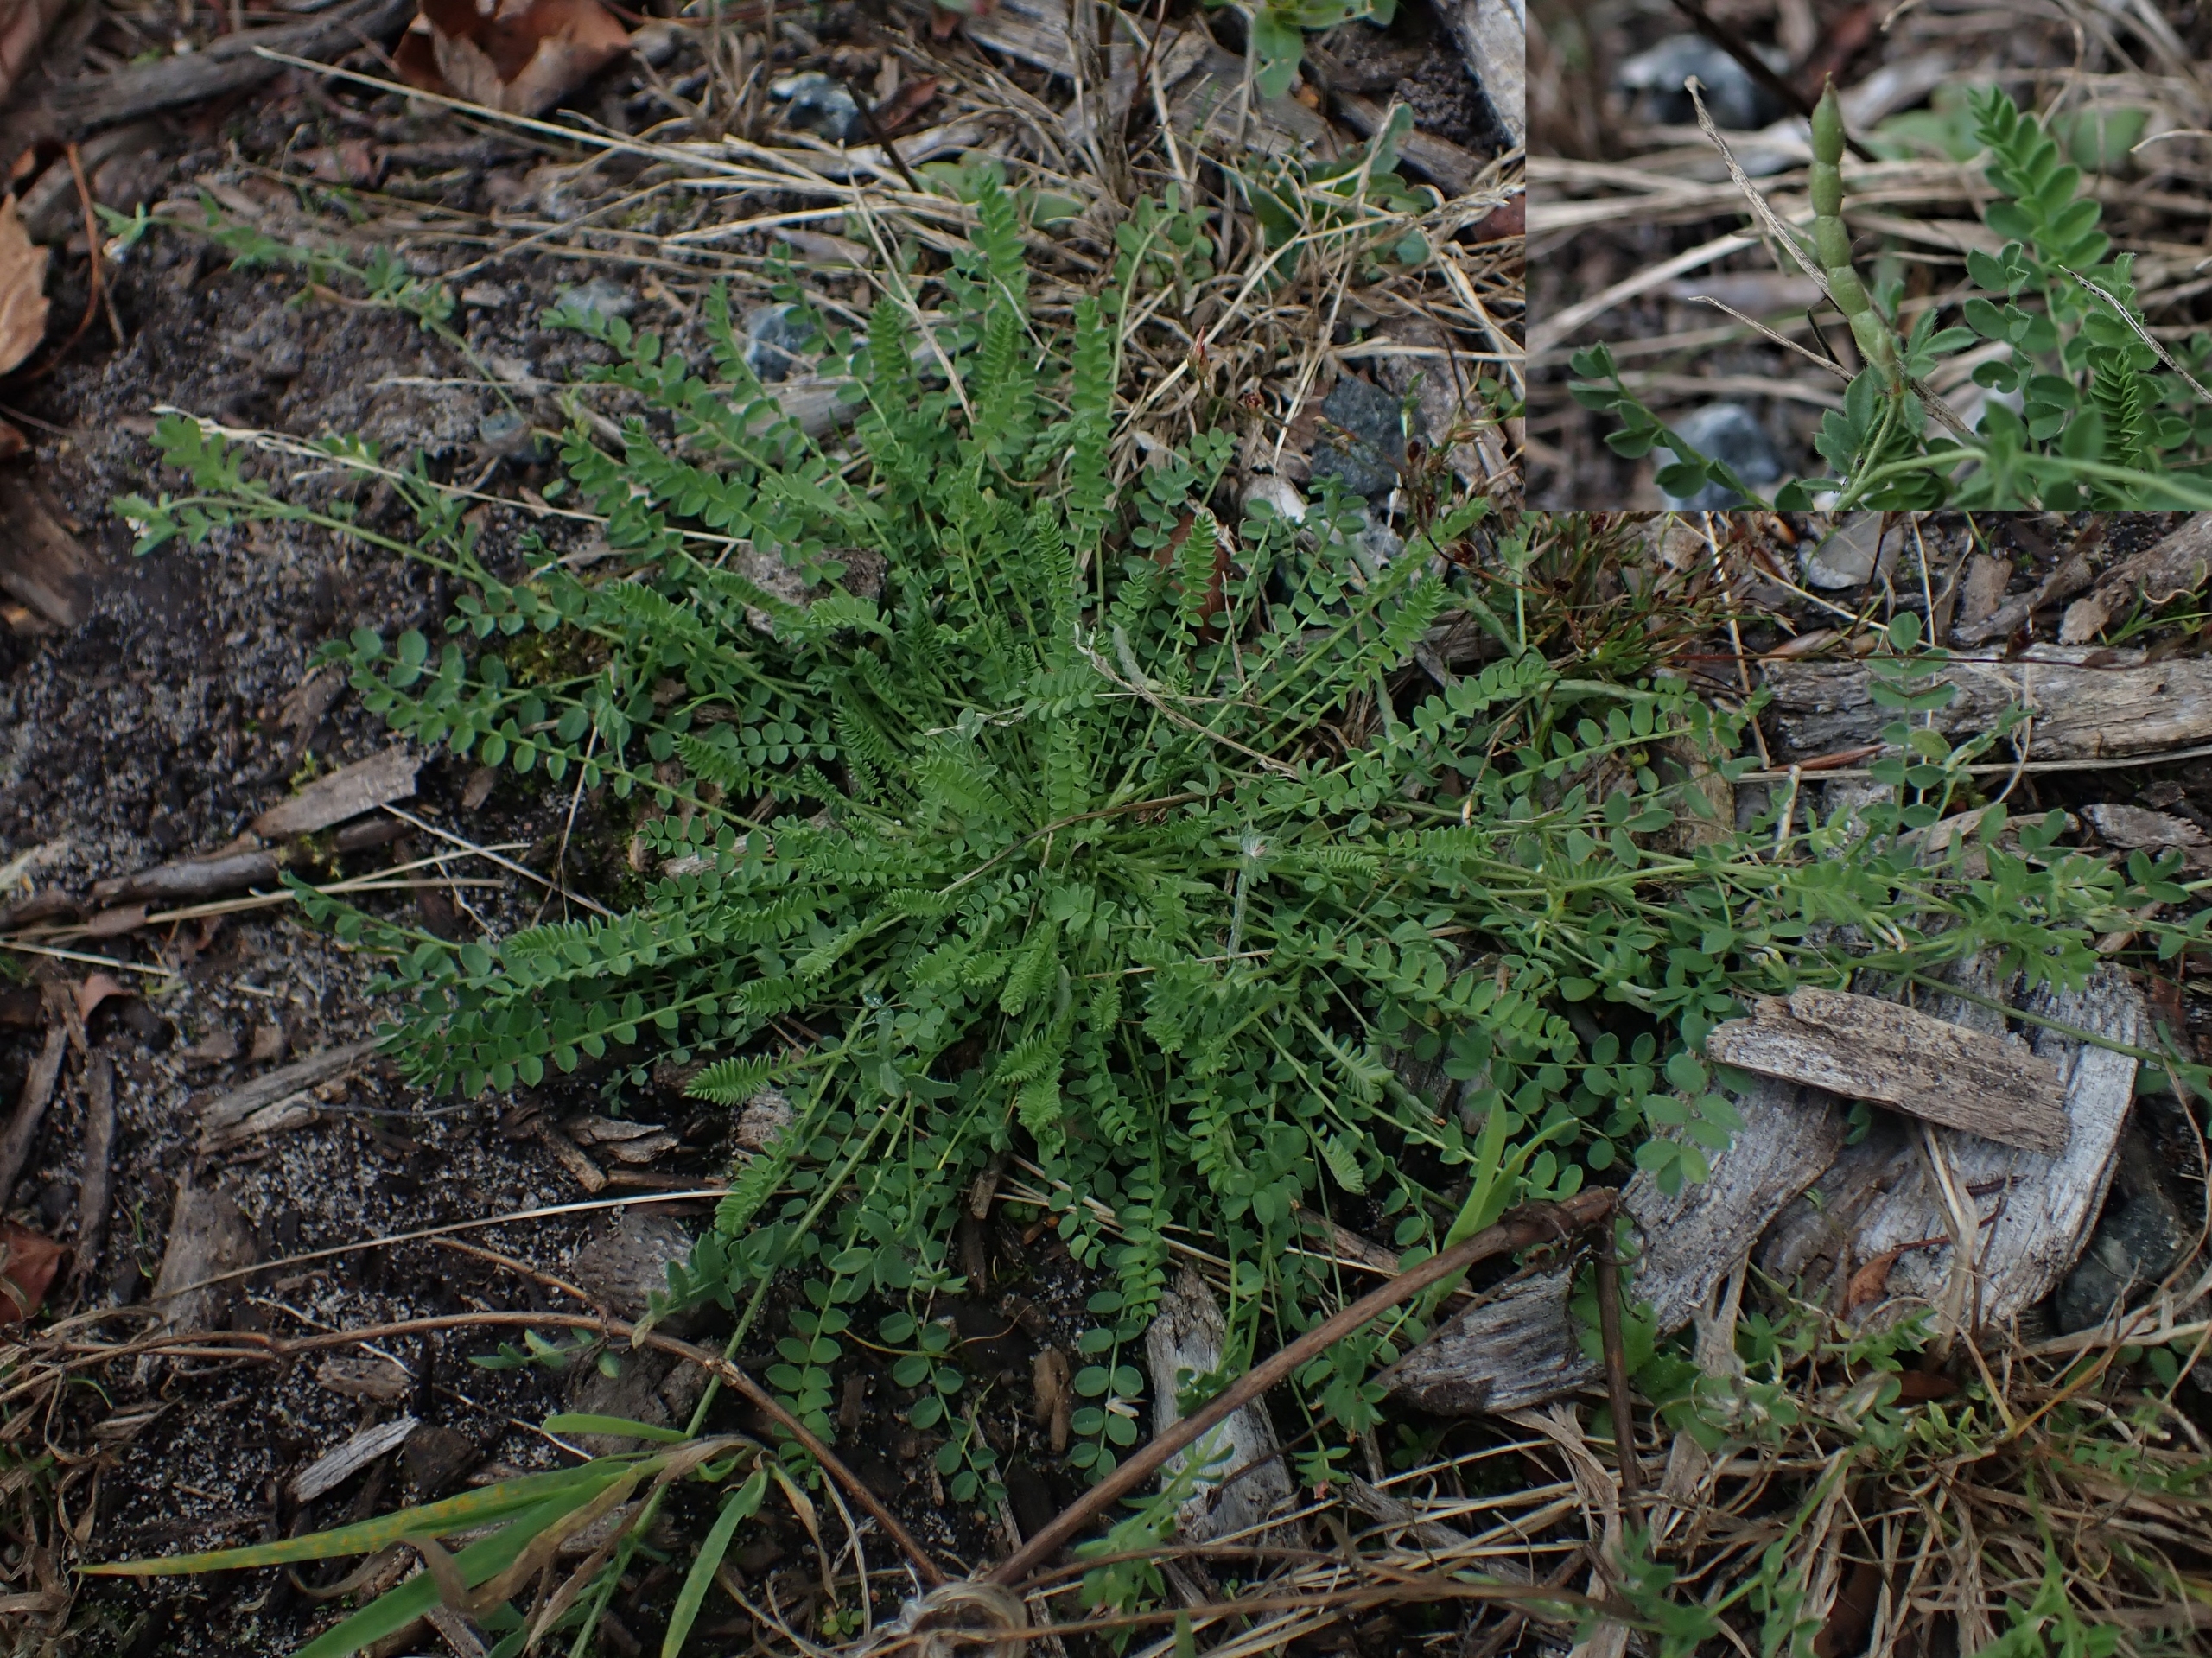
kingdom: Plantae
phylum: Tracheophyta
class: Magnoliopsida
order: Fabales
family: Fabaceae
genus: Ornithopus
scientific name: Ornithopus perpusillus
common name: Liden fugleklo
